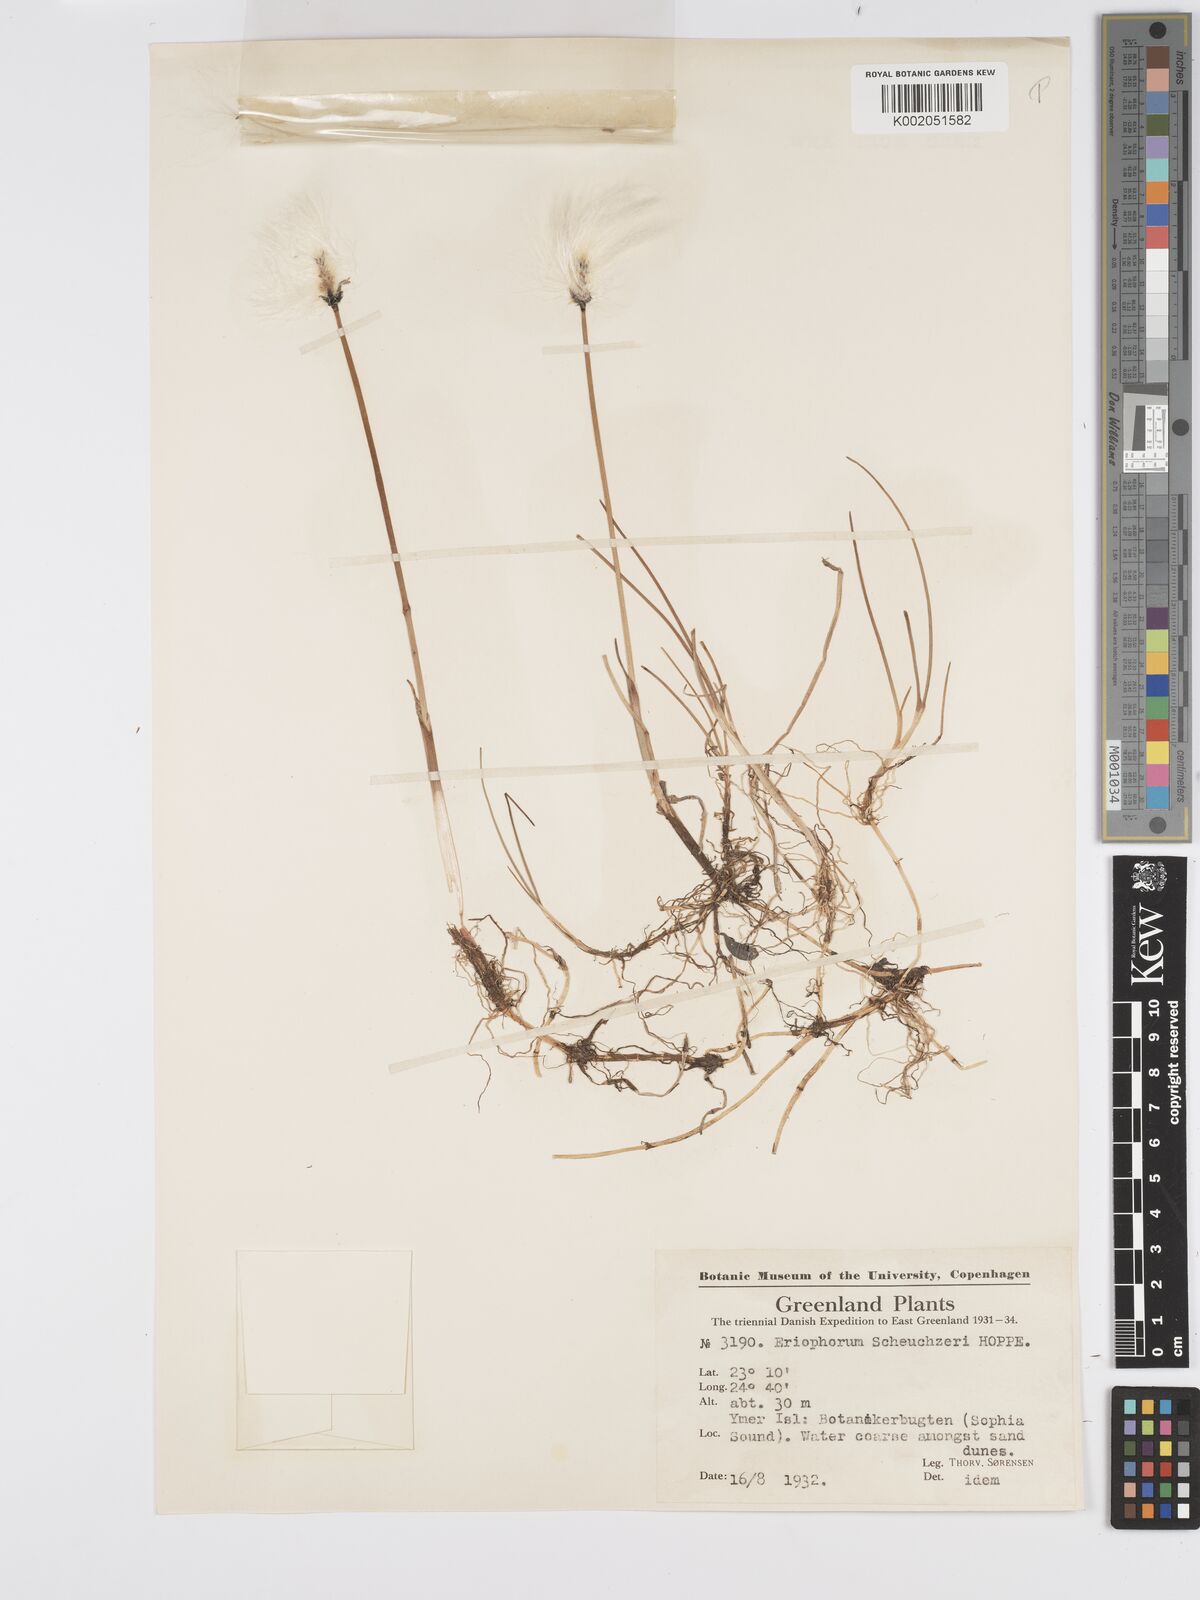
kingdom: Plantae
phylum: Tracheophyta
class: Liliopsida
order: Poales
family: Cyperaceae
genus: Eriophorum
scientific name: Eriophorum scheuchzeri
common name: Scheuchzer's cottongrass
